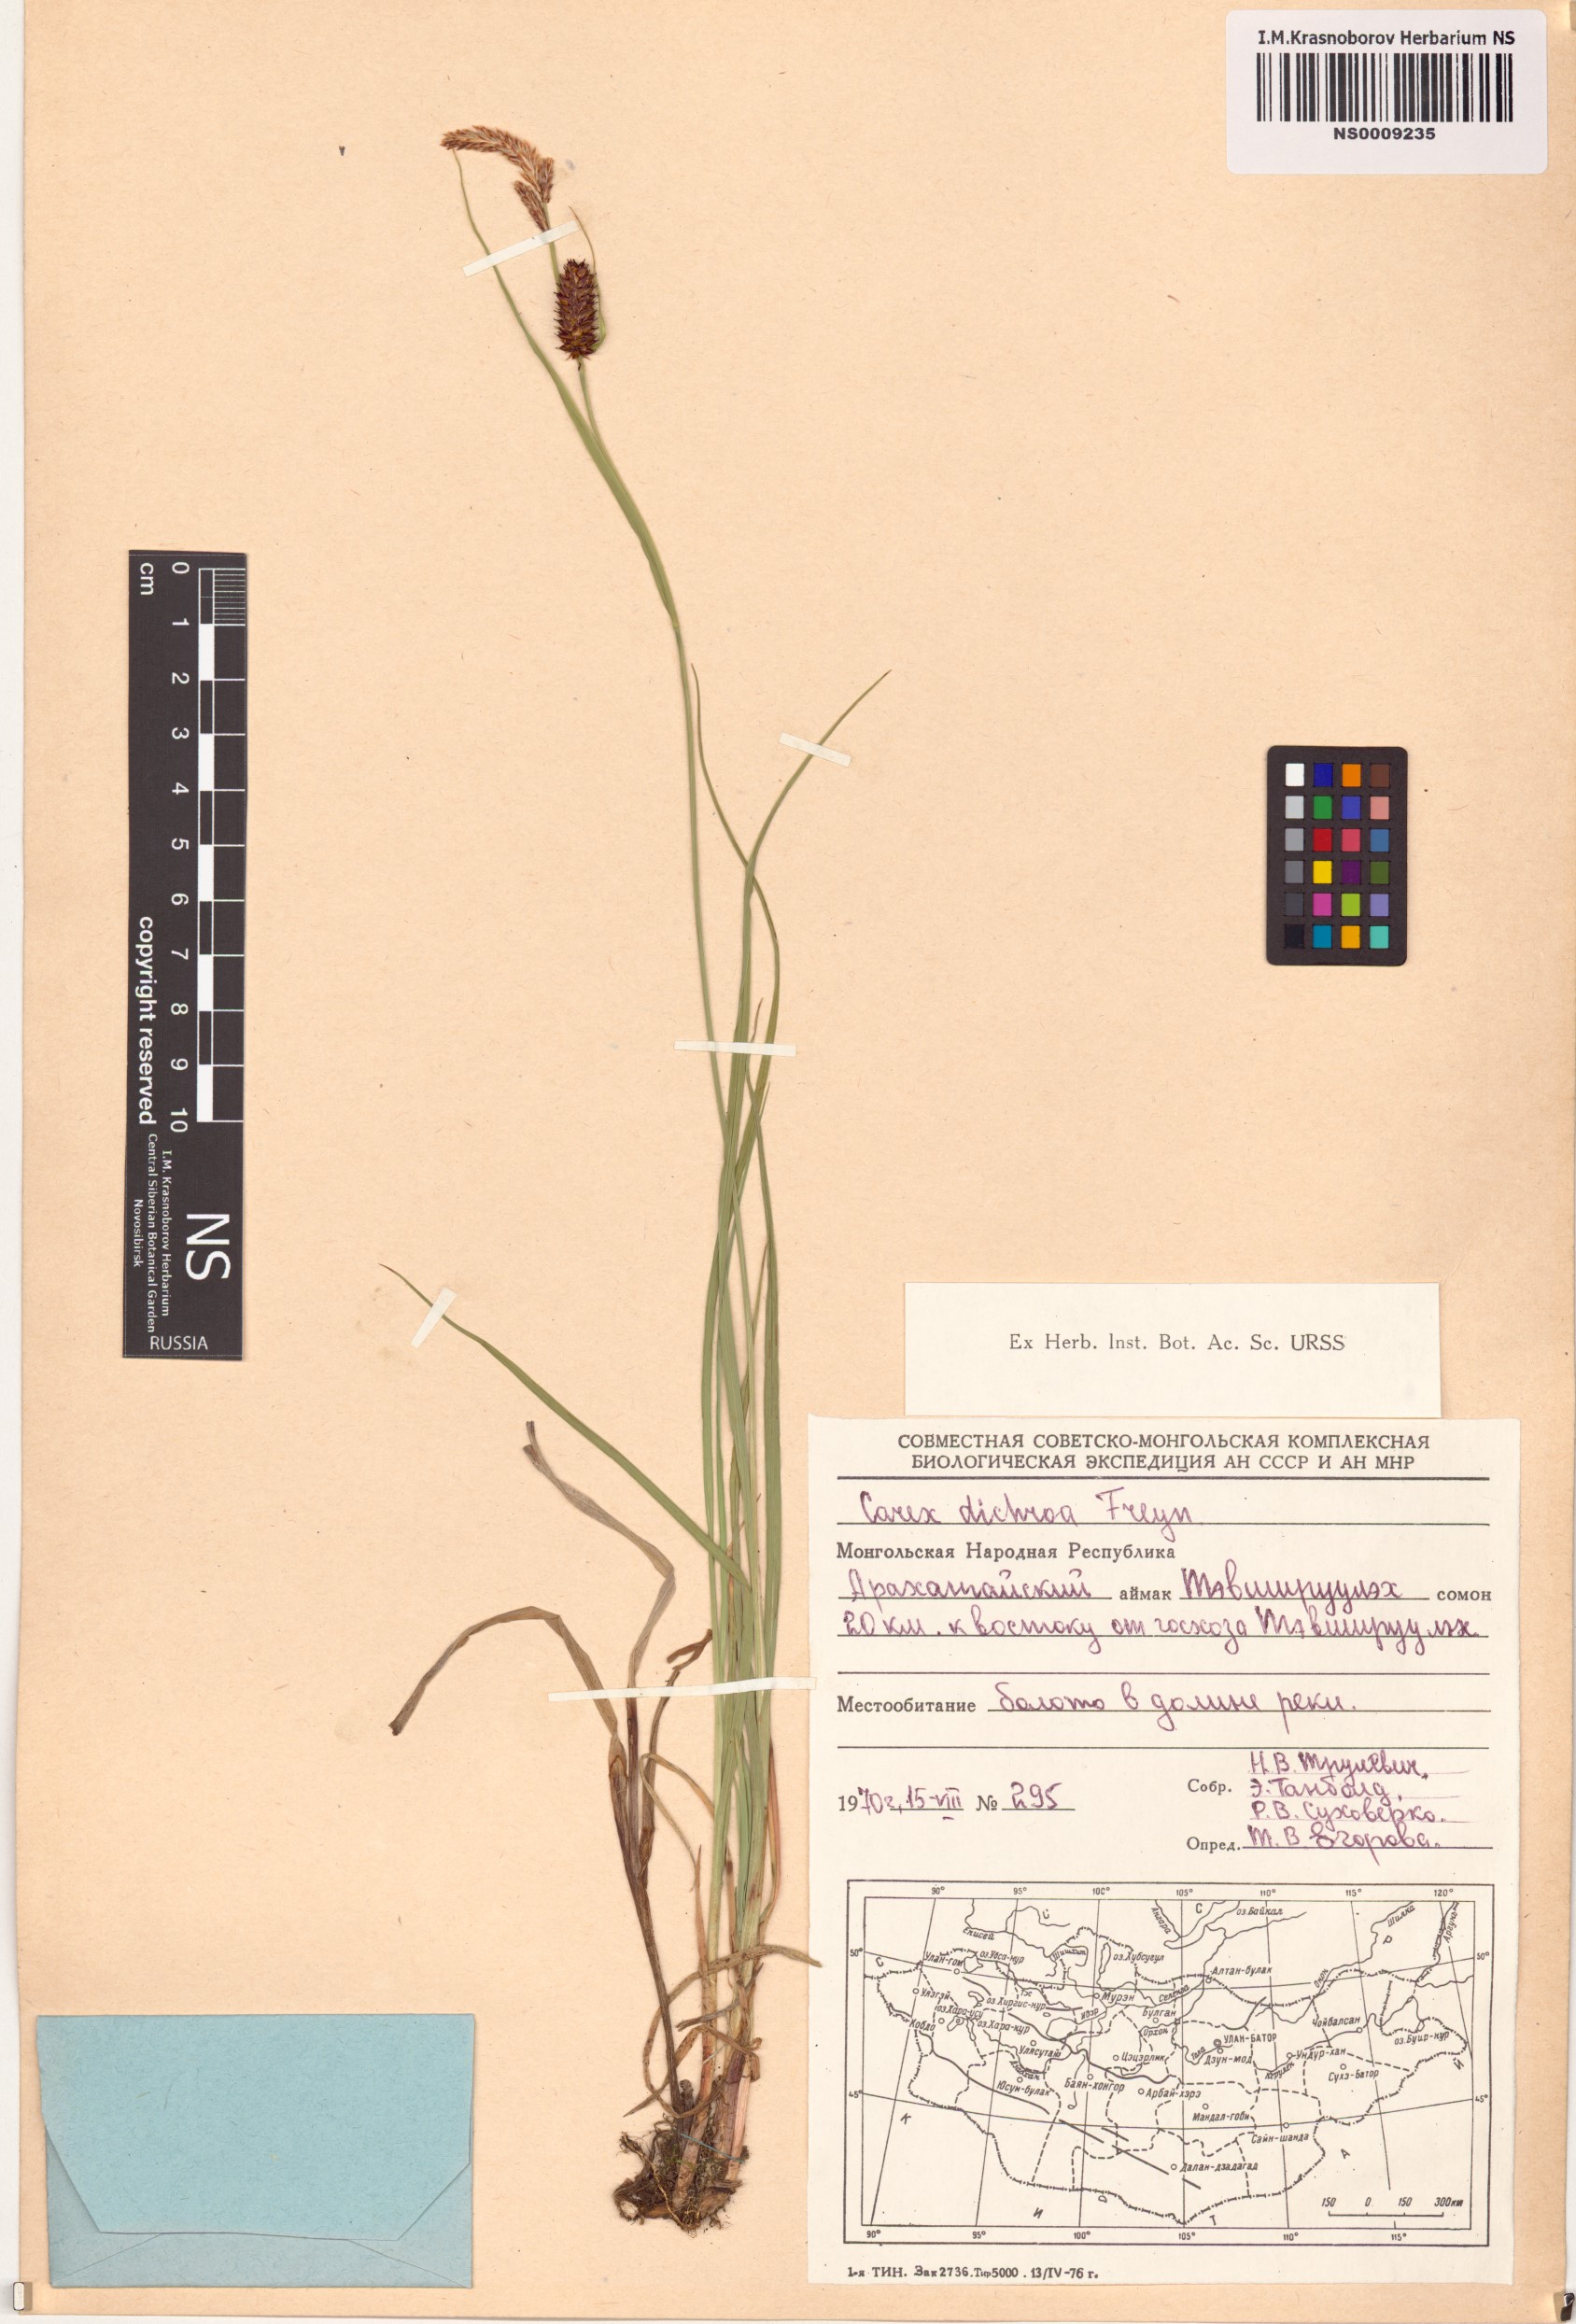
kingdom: Plantae
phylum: Tracheophyta
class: Liliopsida
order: Poales
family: Cyperaceae
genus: Carex
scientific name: Carex pamirensis
